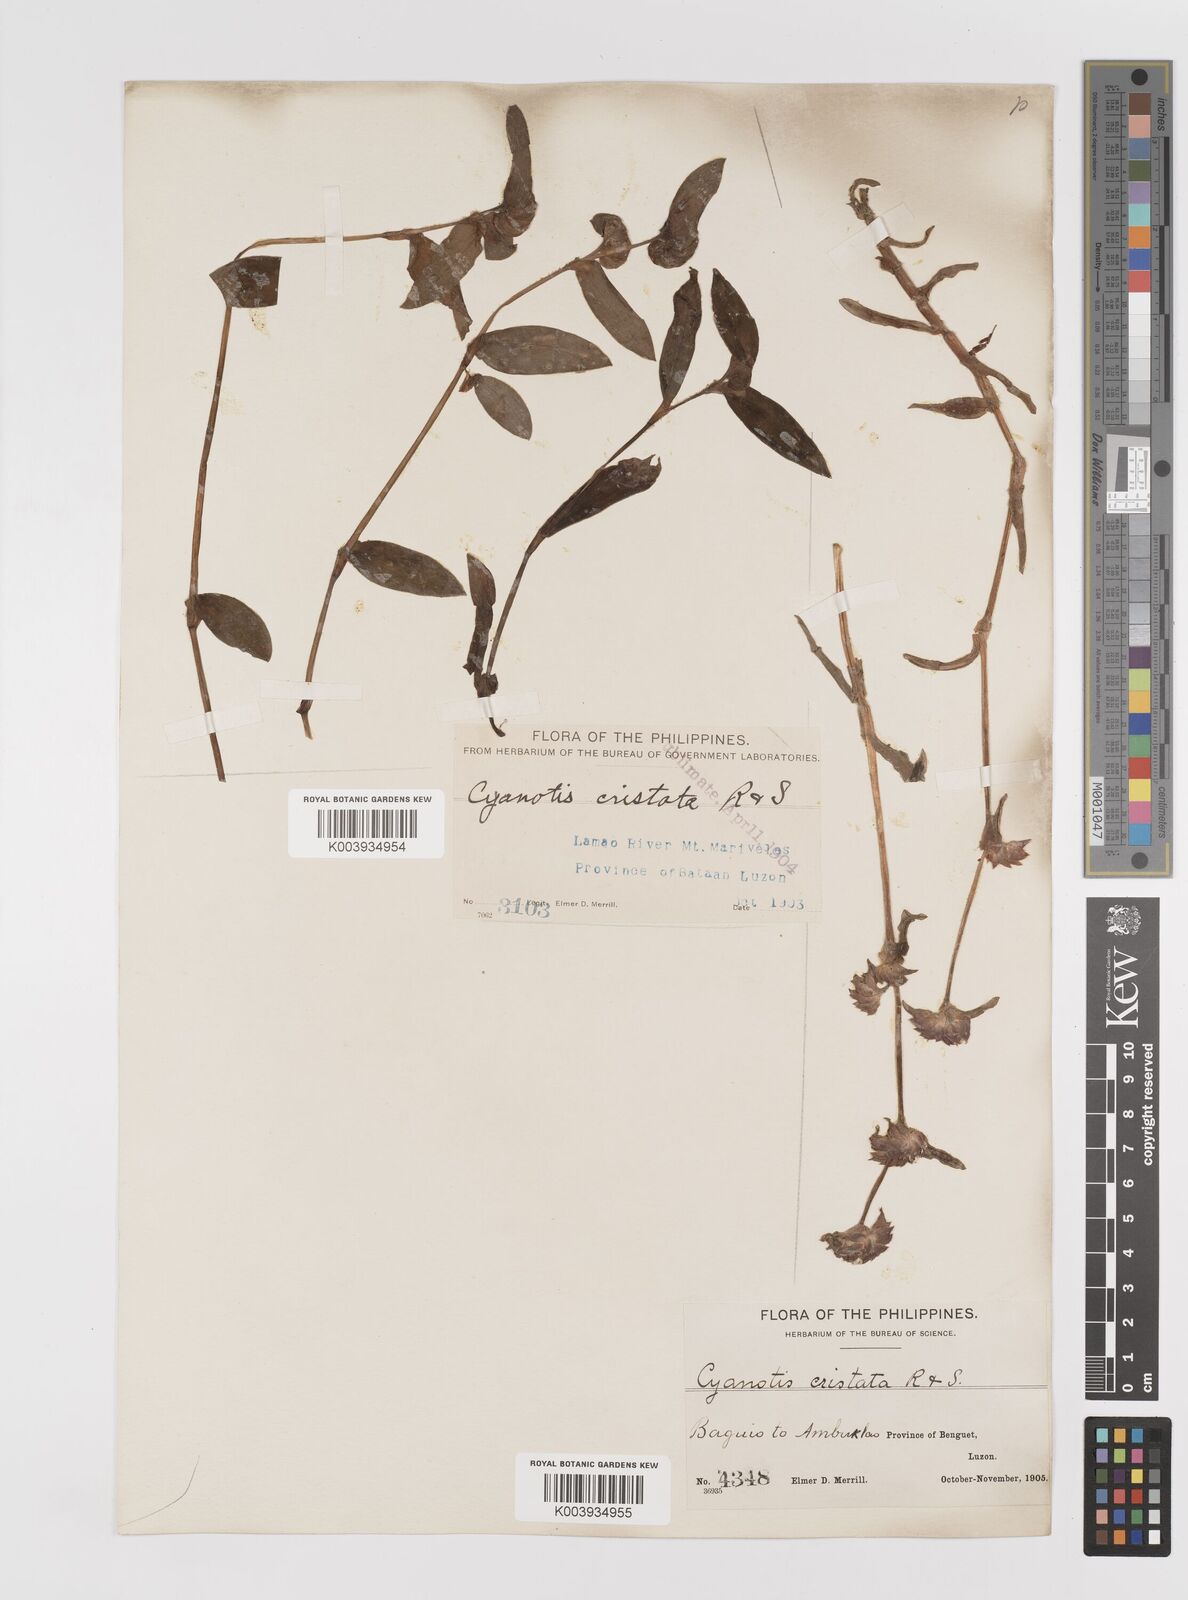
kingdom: Plantae
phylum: Tracheophyta
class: Liliopsida
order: Commelinales
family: Commelinaceae
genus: Cyanotis
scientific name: Cyanotis cristata
